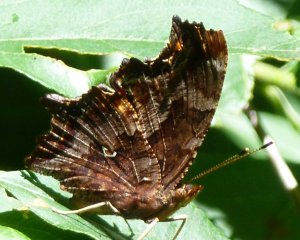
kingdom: Animalia
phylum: Arthropoda
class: Insecta
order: Lepidoptera
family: Nymphalidae
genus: Polygonia
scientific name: Polygonia comma
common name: Eastern Comma
